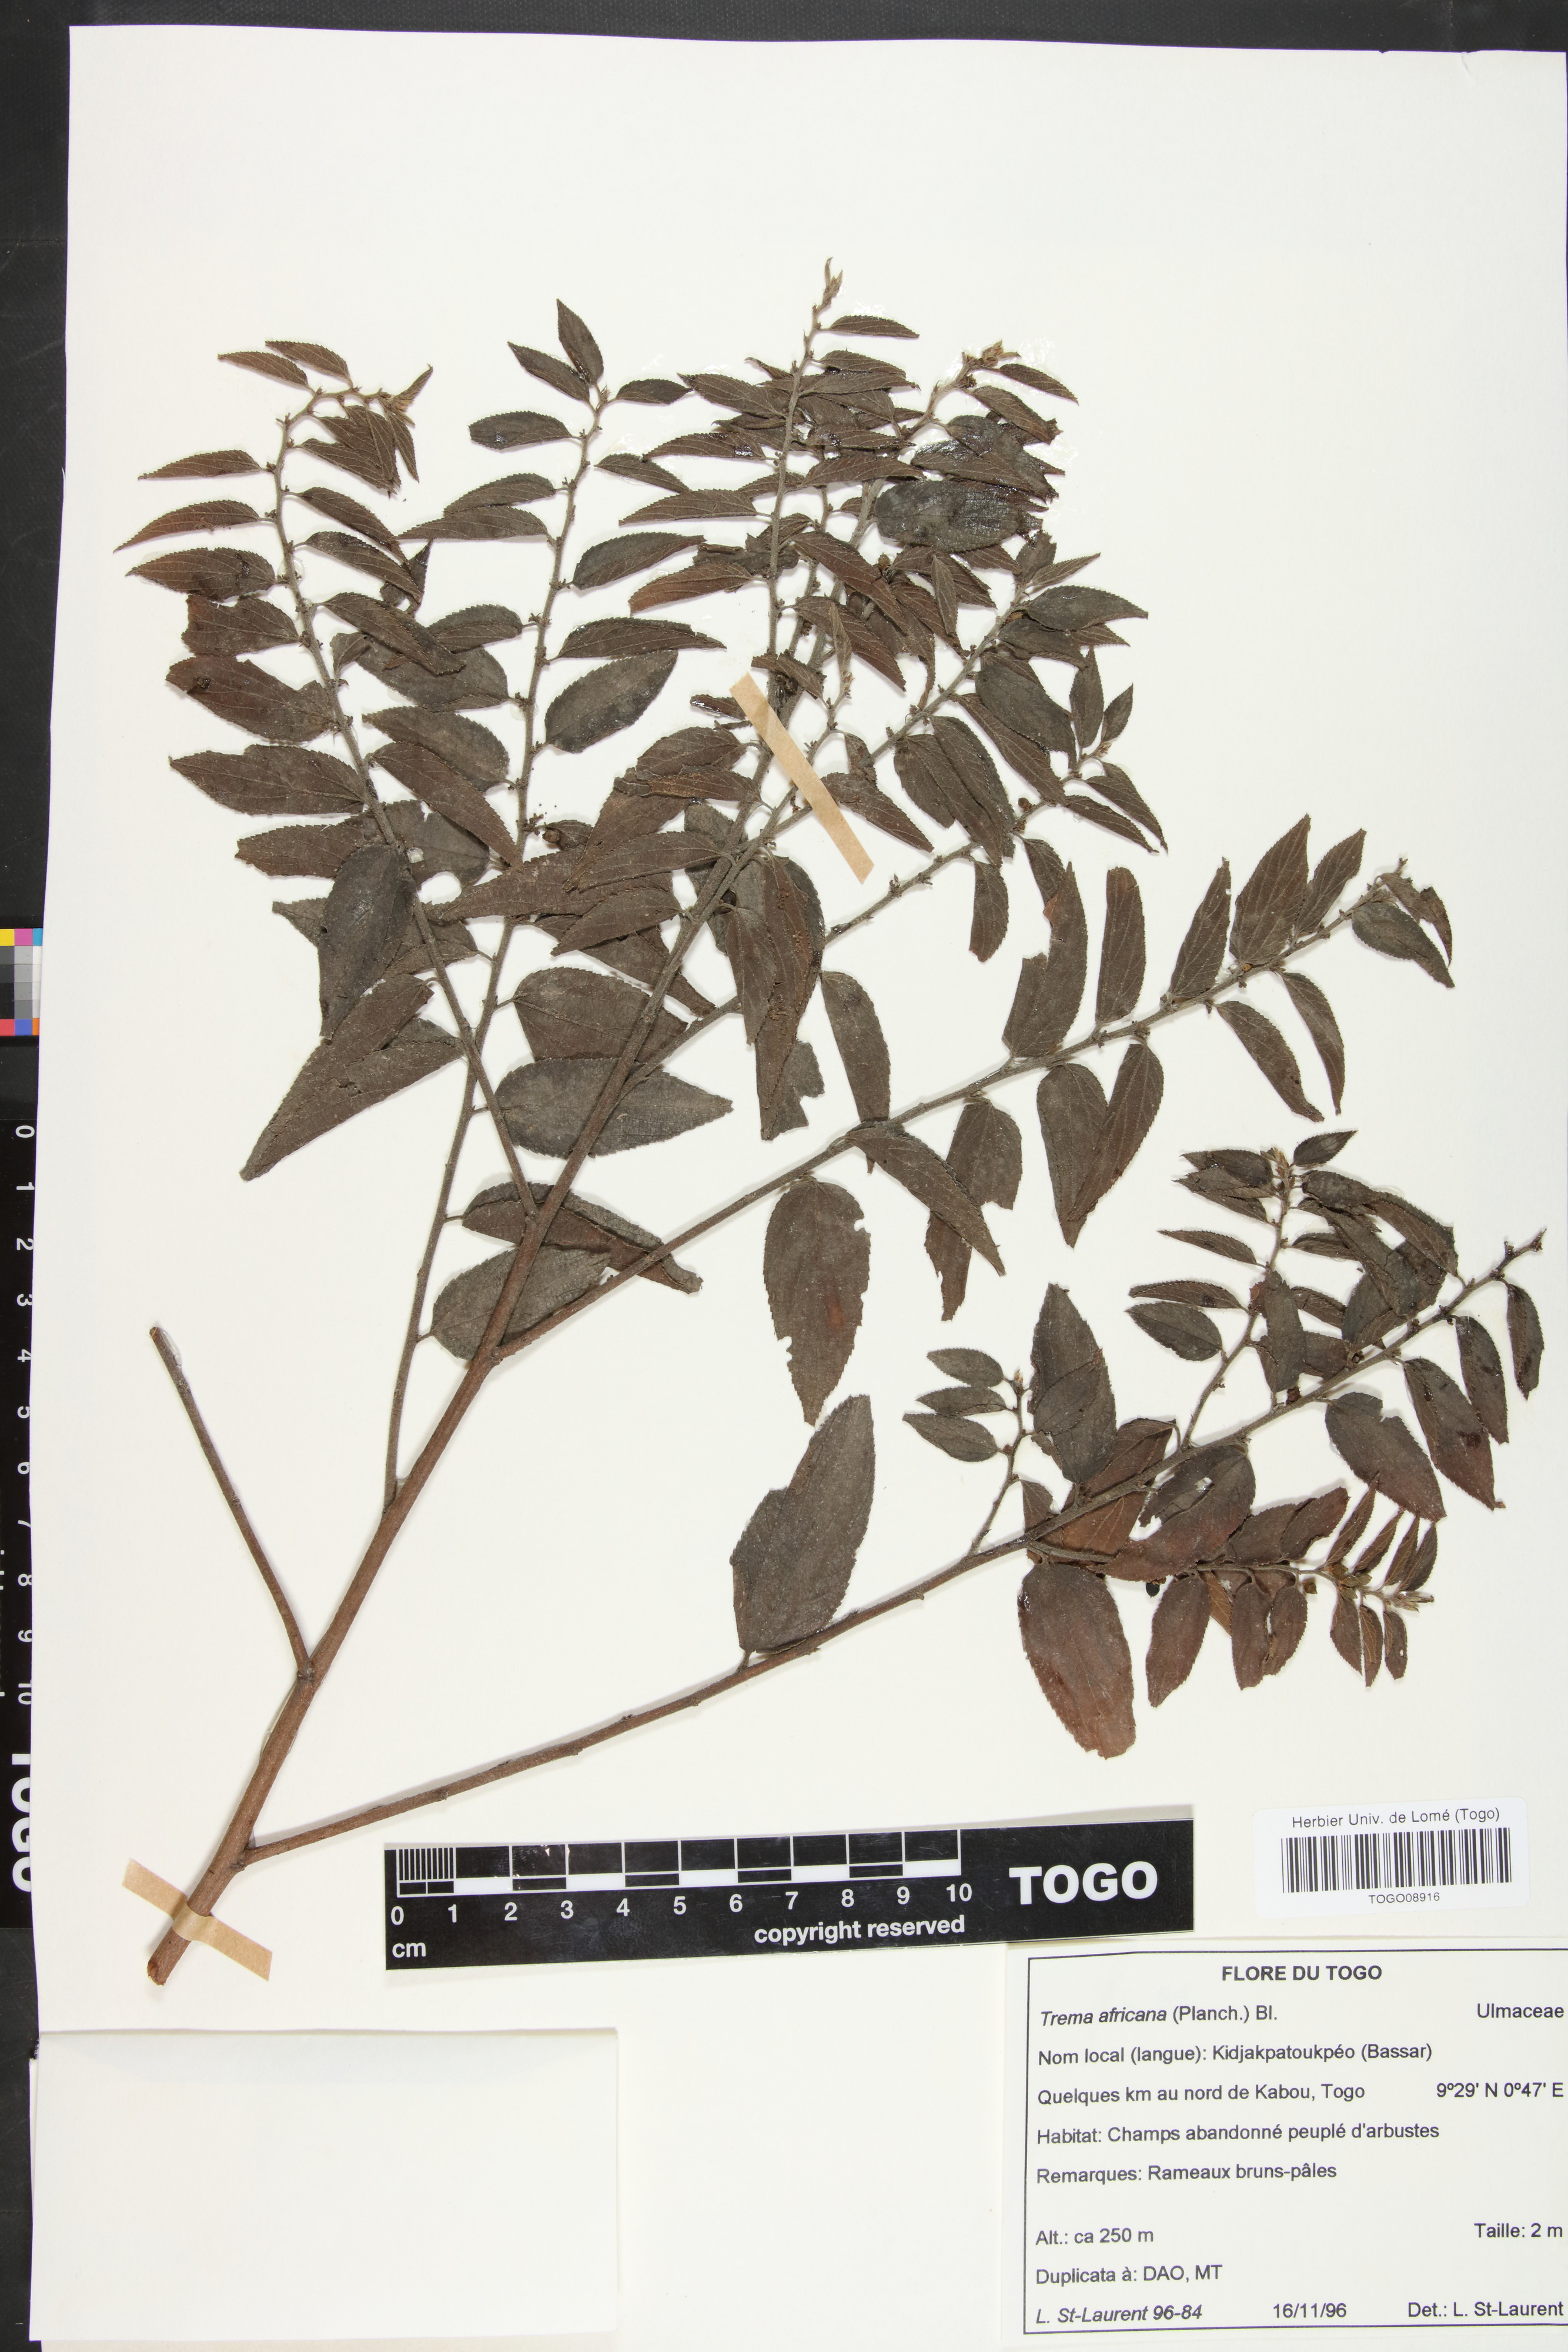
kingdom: Plantae
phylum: Tracheophyta
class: Magnoliopsida
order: Rosales
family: Cannabaceae
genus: Trema
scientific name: Trema orientale
